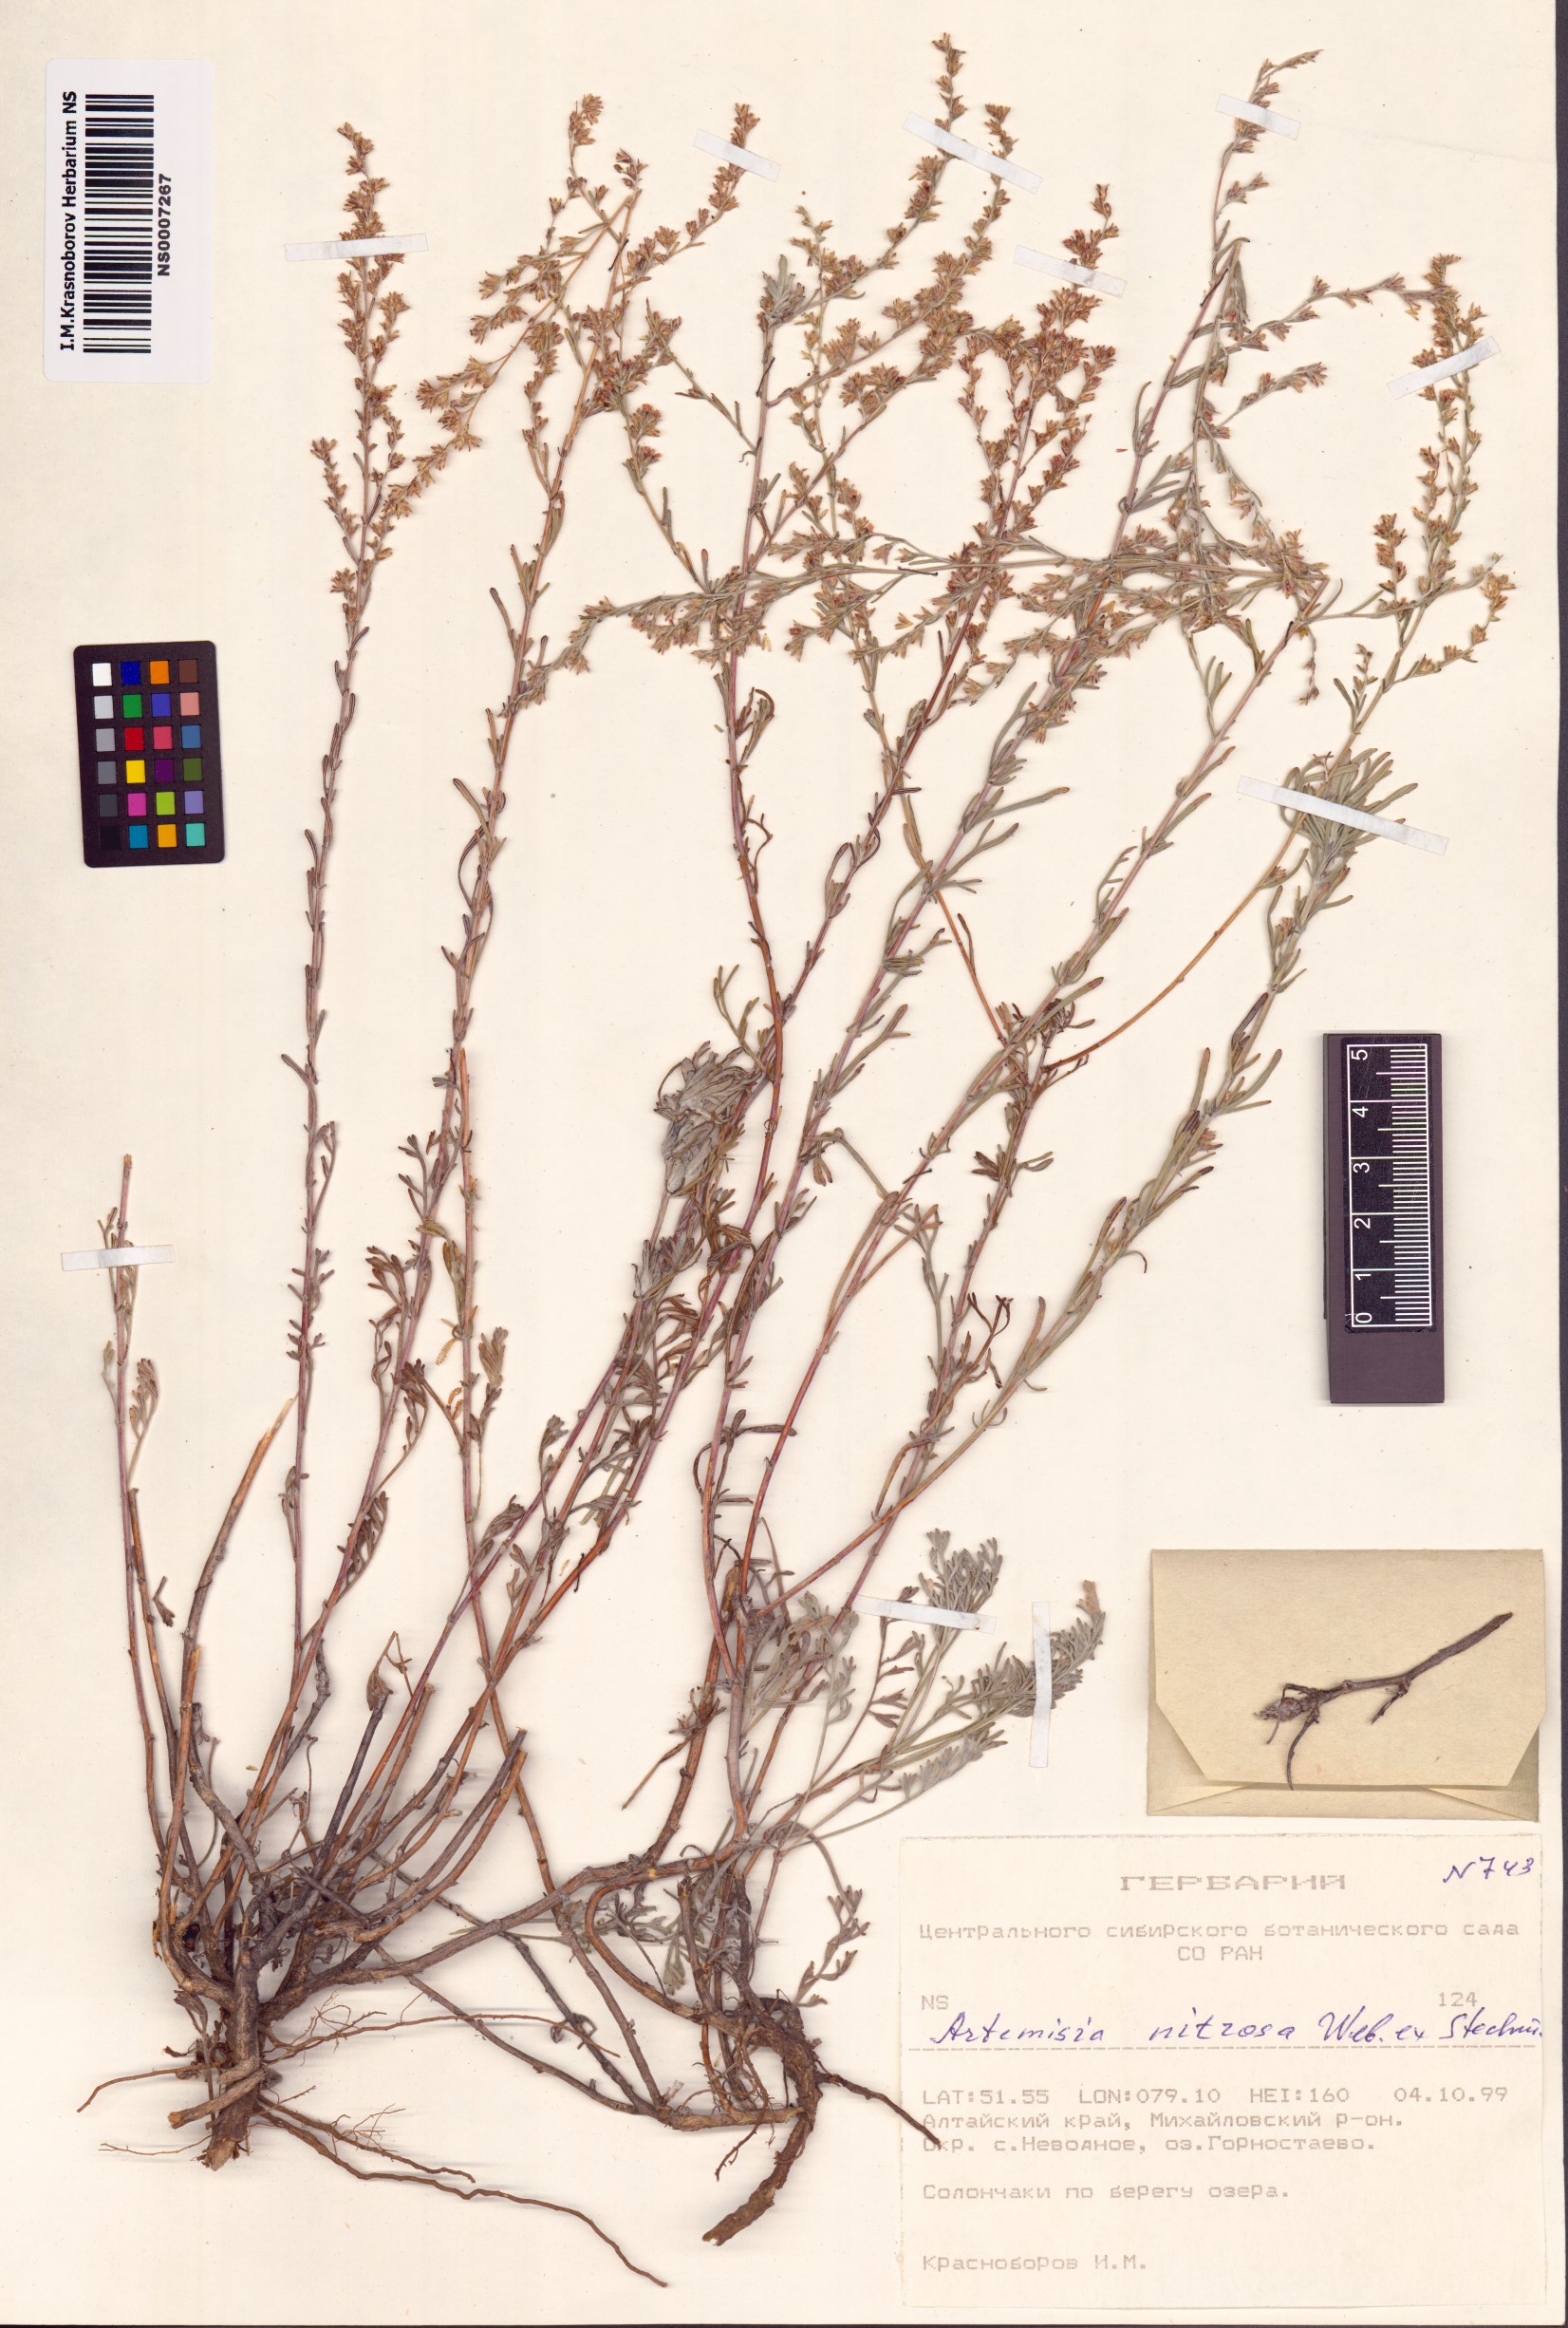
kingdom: Plantae
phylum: Tracheophyta
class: Magnoliopsida
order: Asterales
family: Asteraceae
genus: Artemisia
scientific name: Artemisia nitrosa
